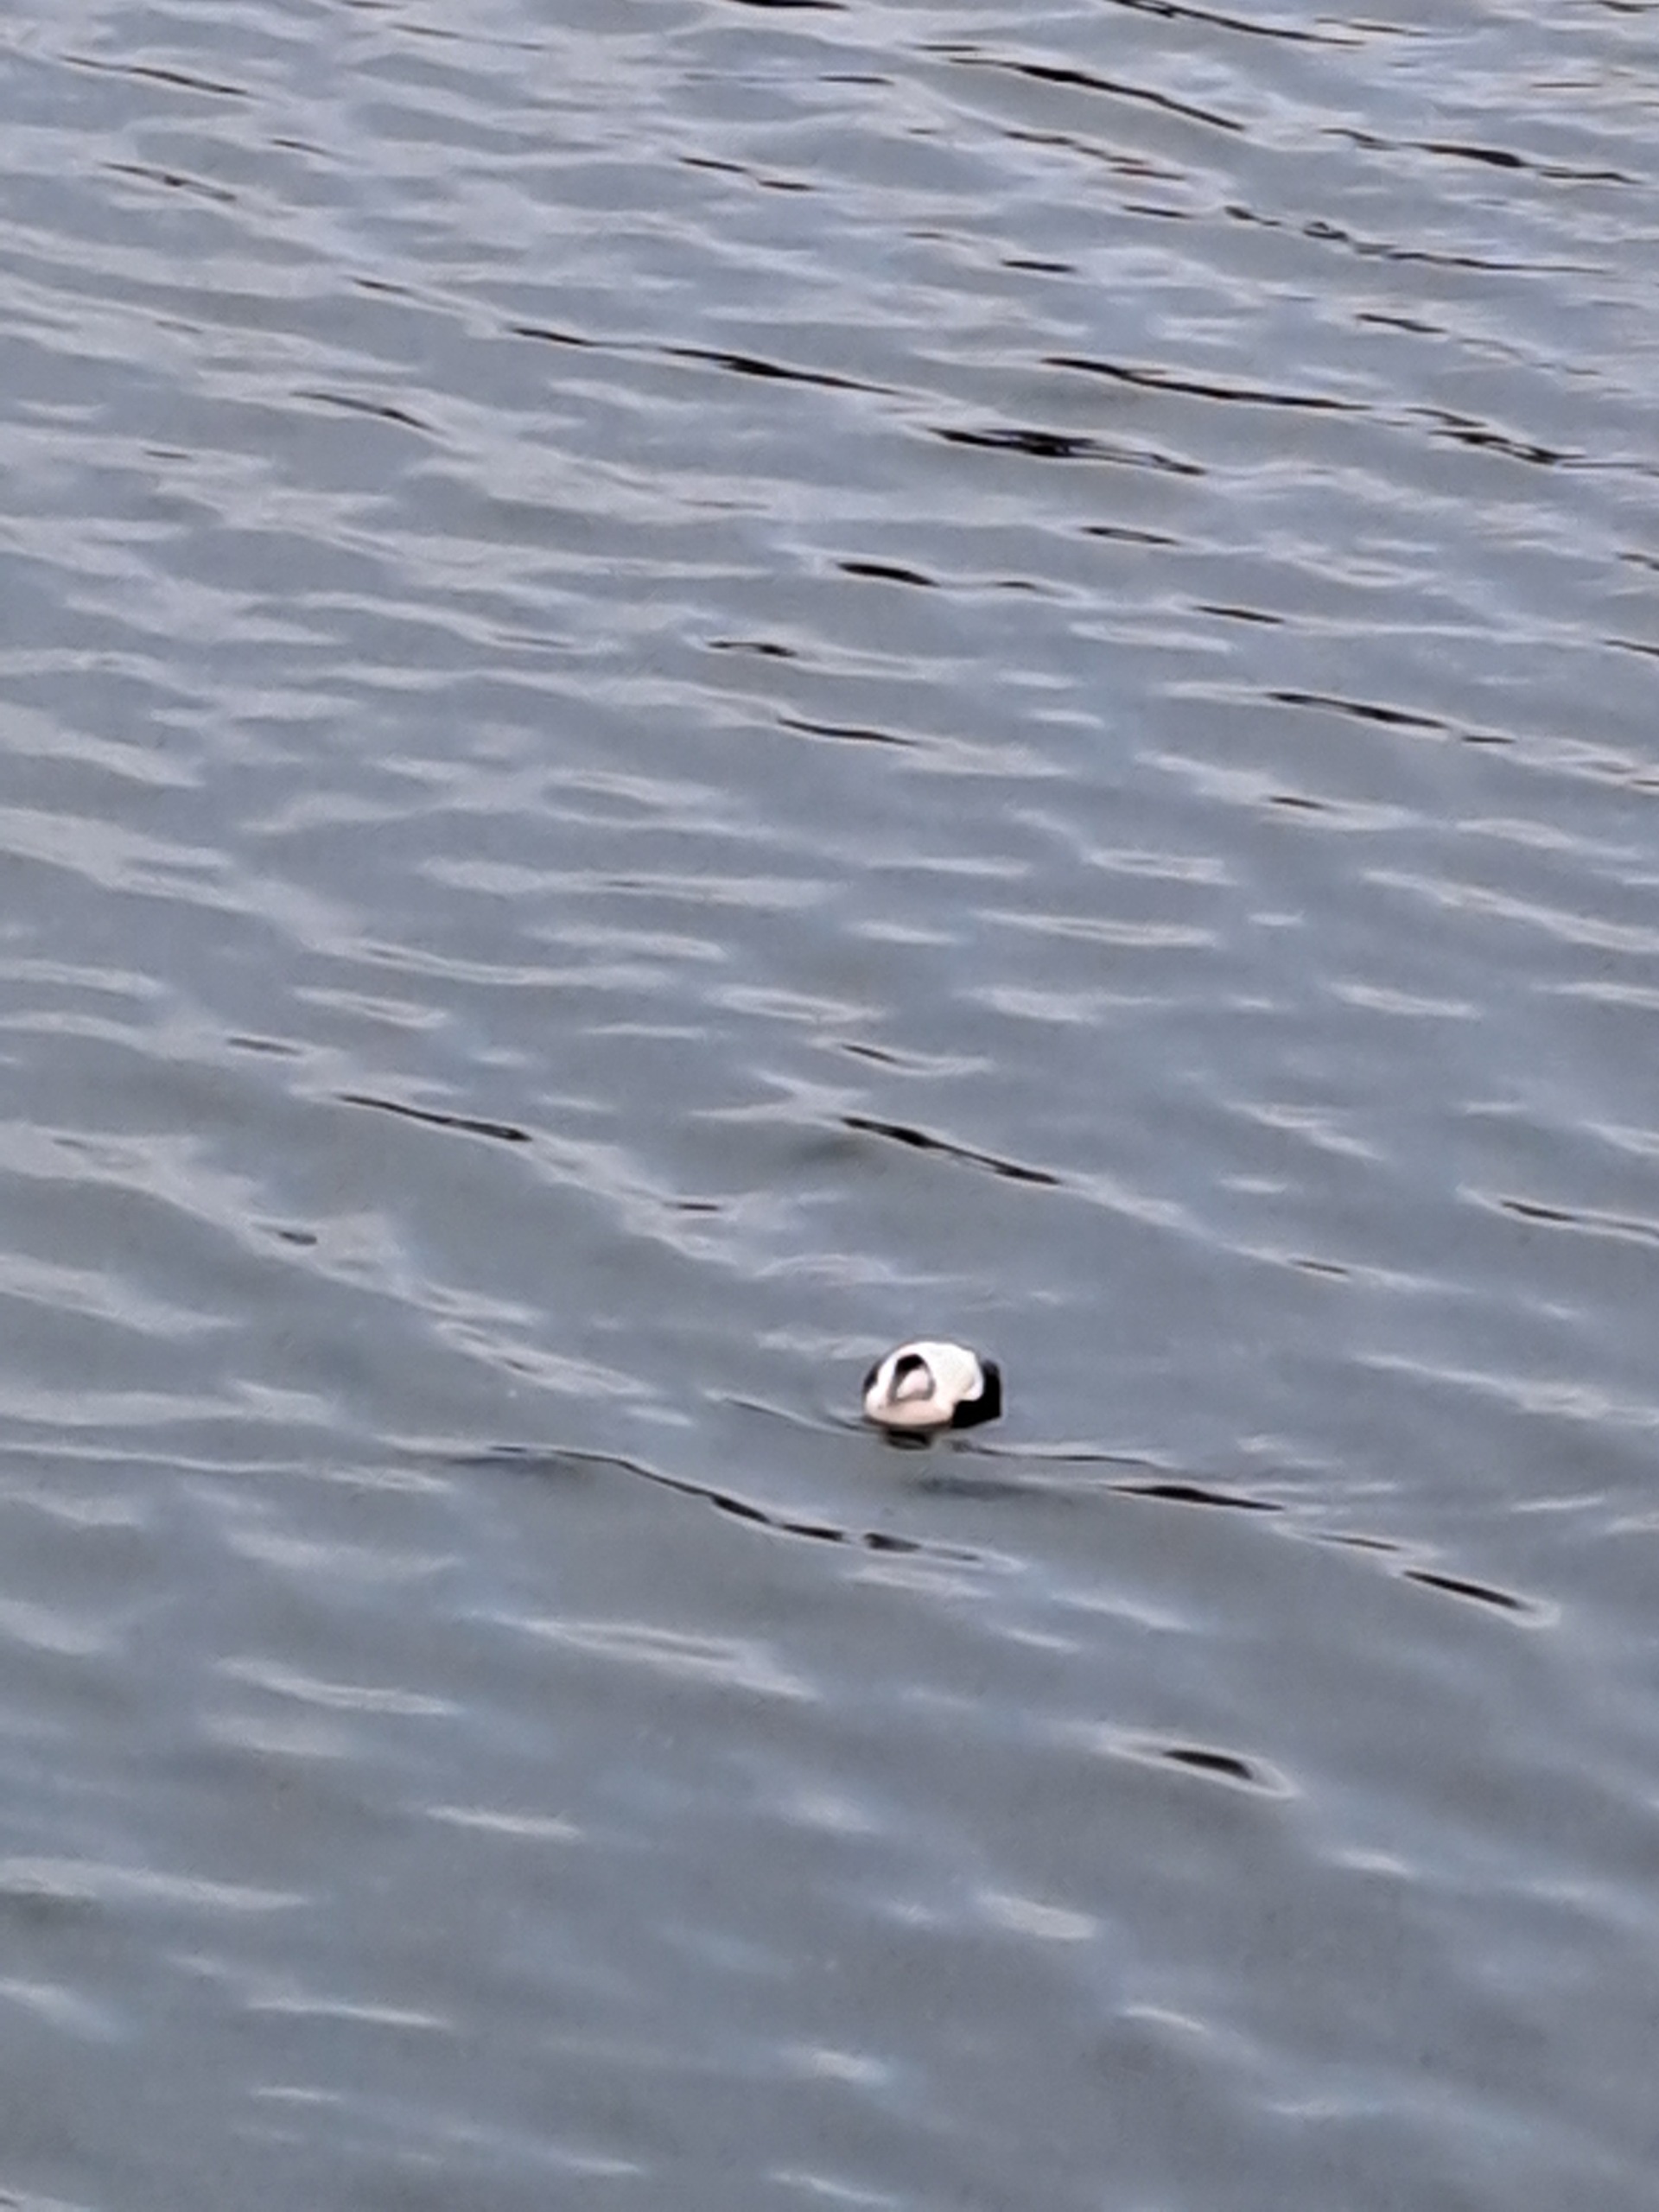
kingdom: Animalia
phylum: Chordata
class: Aves
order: Anseriformes
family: Anatidae
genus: Somateria
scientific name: Somateria mollissima
